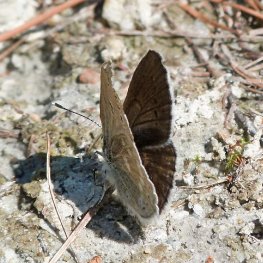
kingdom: Animalia
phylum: Arthropoda
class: Insecta
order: Lepidoptera
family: Lycaenidae
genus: Icaricia
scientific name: Icaricia icarioides
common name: Boisduval's Blue
